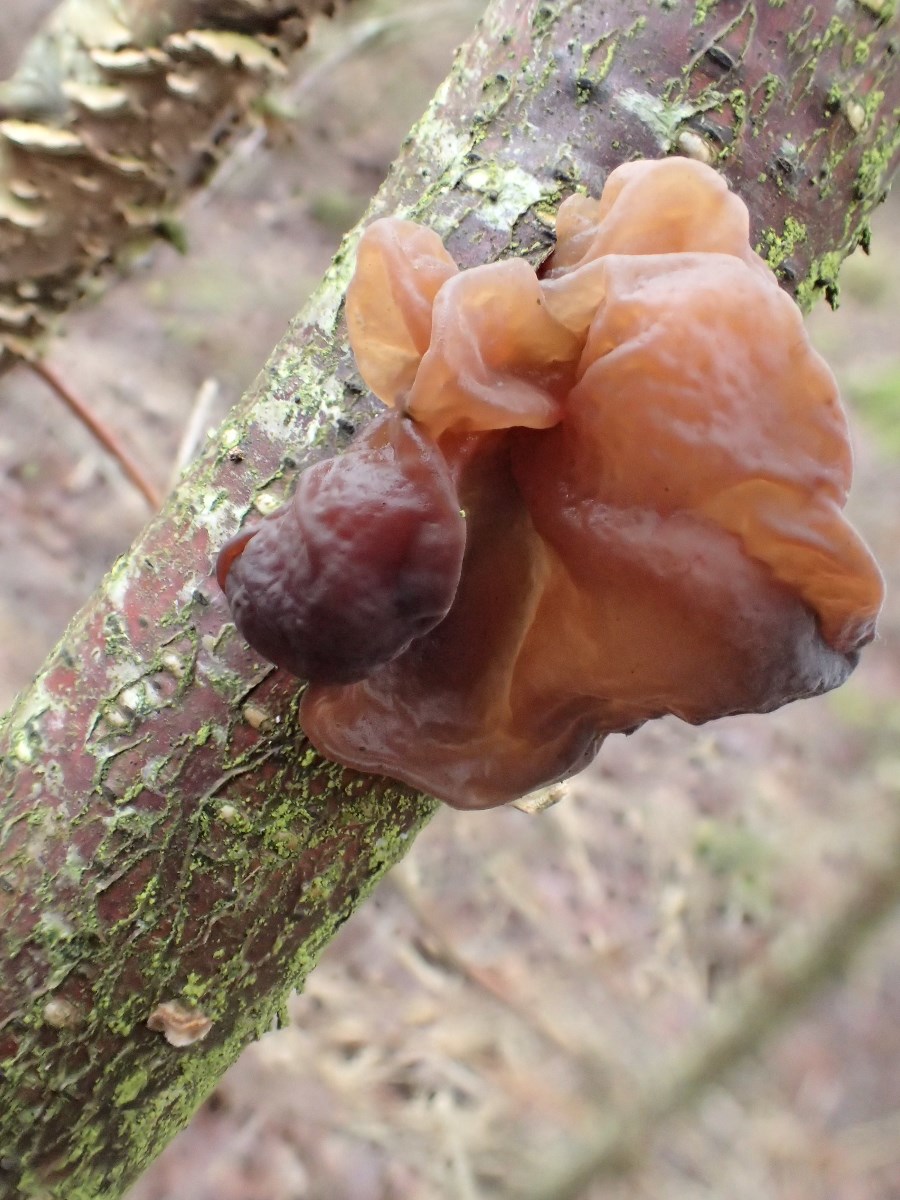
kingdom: Fungi
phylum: Basidiomycota
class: Tremellomycetes
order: Tremellales
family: Tremellaceae
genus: Phaeotremella
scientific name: Phaeotremella frondosa
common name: kæmpe-bævresvamp
